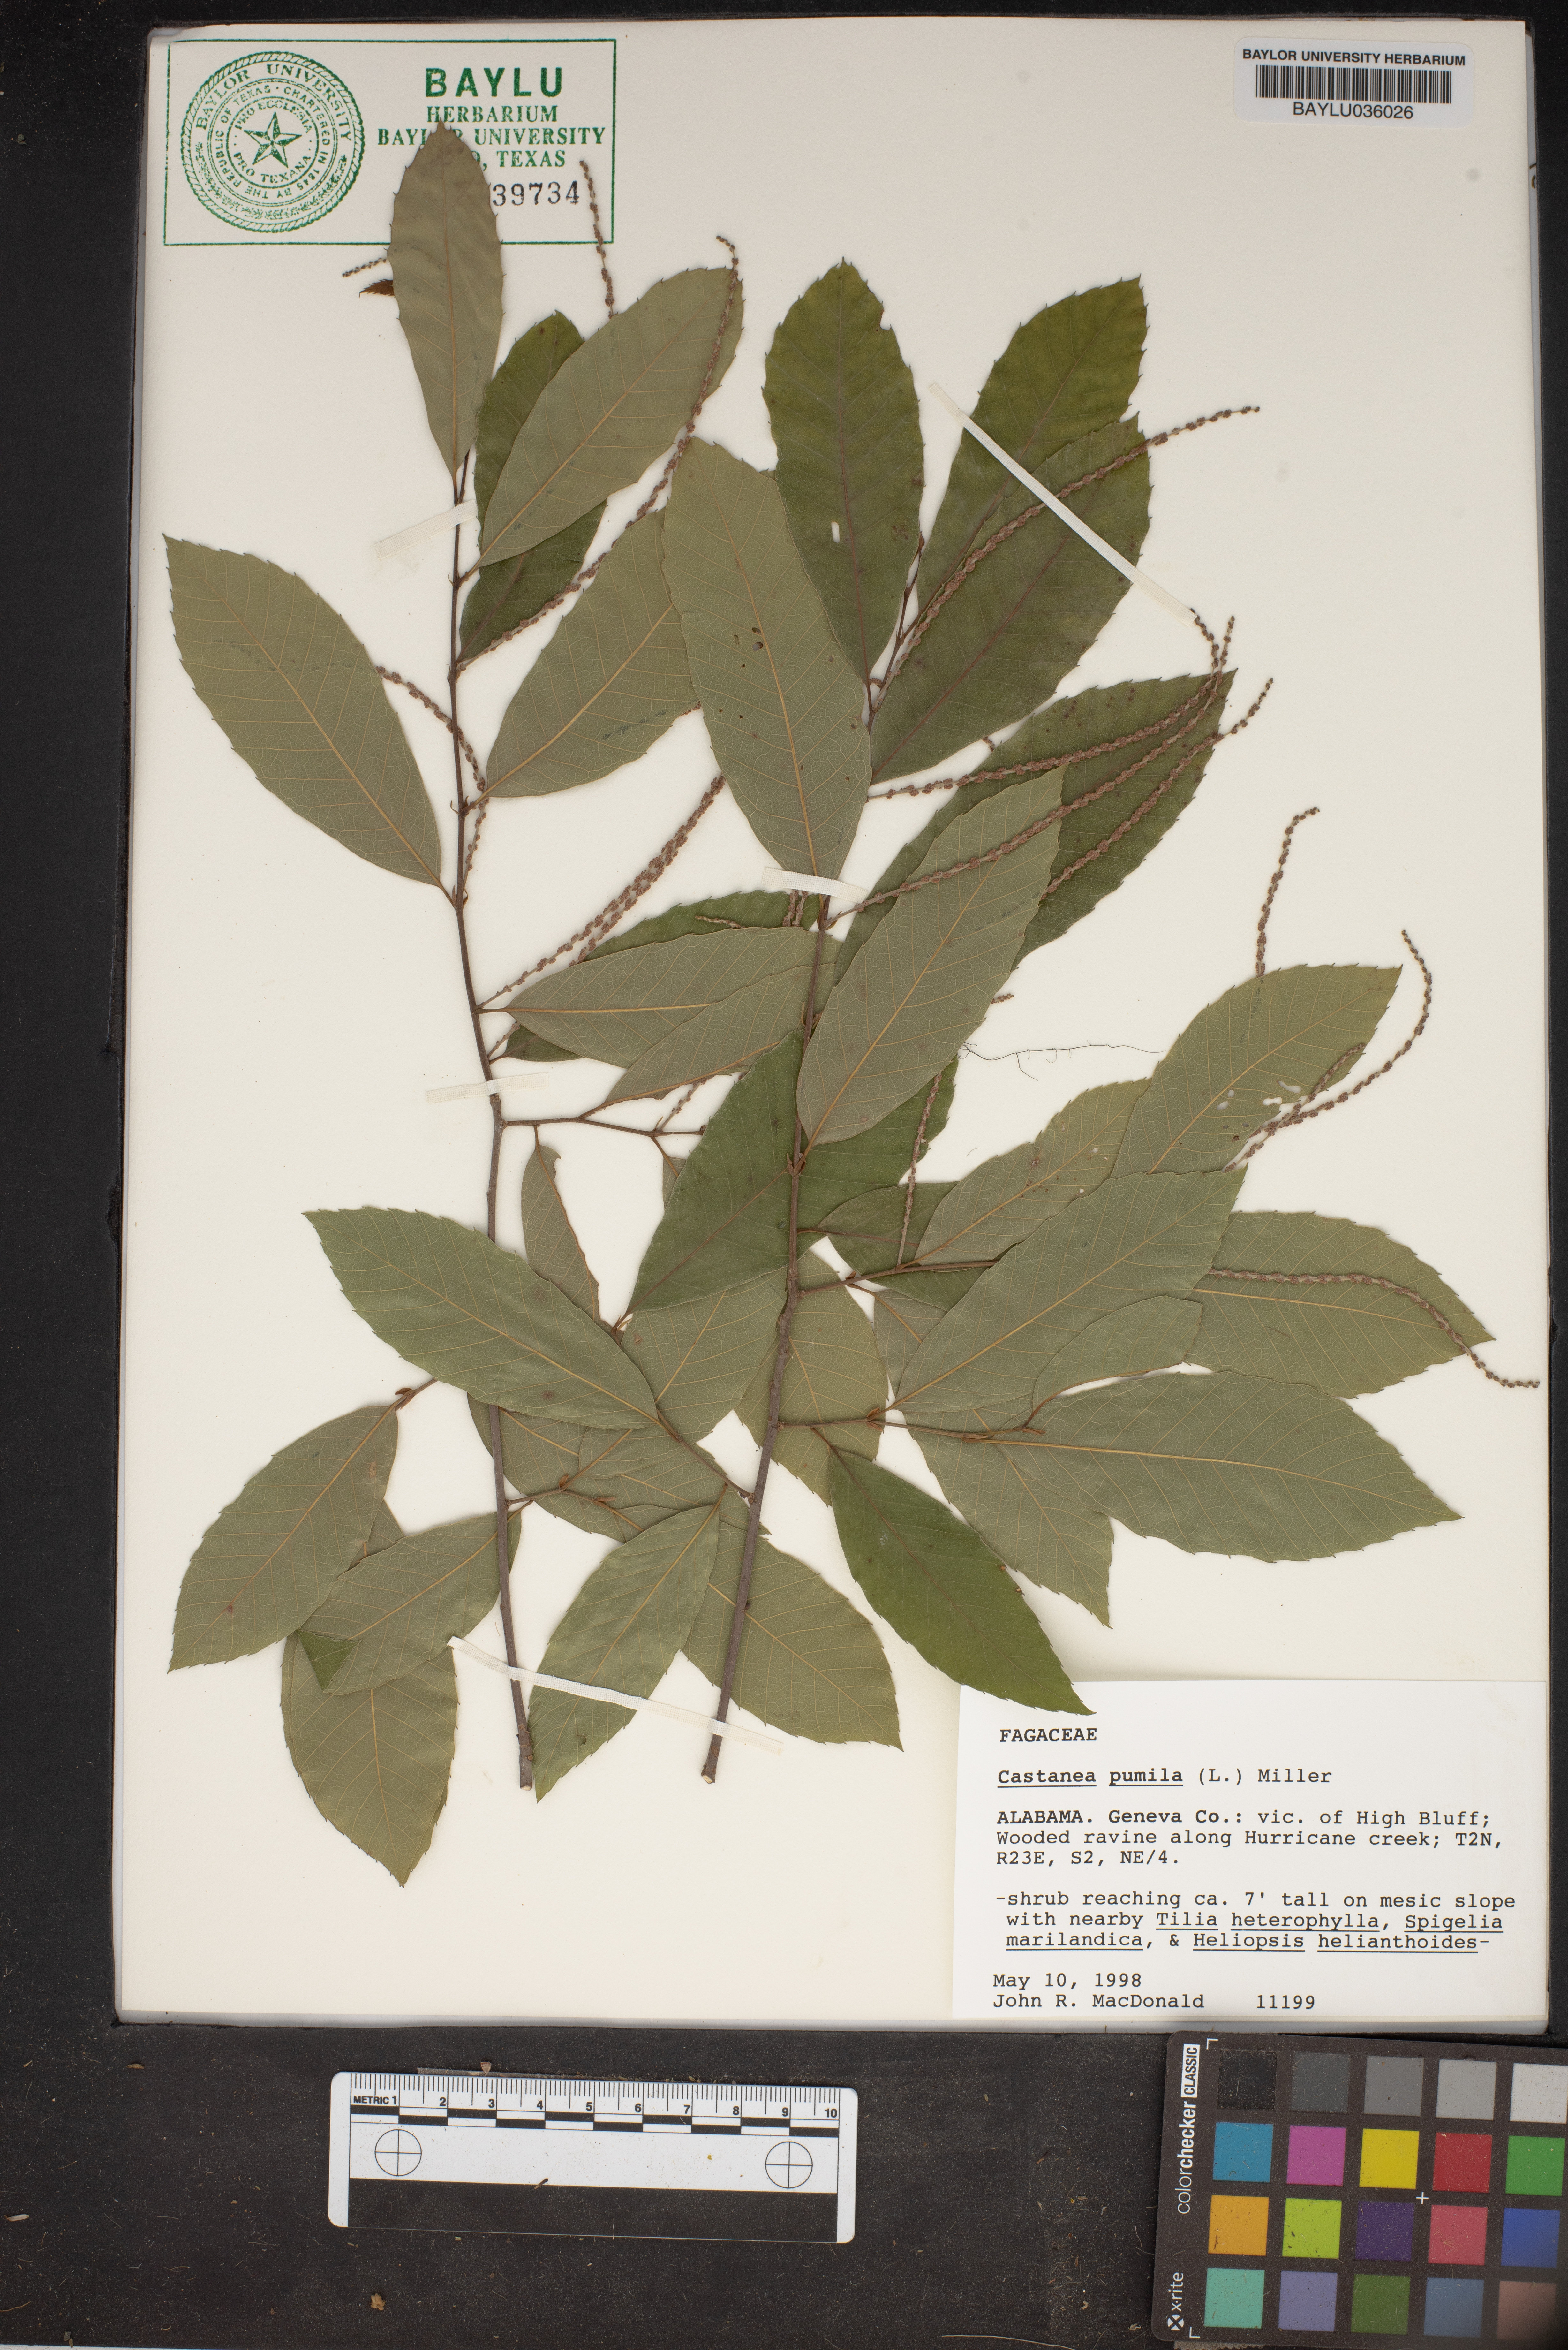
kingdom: Plantae
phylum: Tracheophyta
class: Magnoliopsida
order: Fagales
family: Fagaceae
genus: Castanea
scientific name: Castanea pumila
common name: Chinkapin
